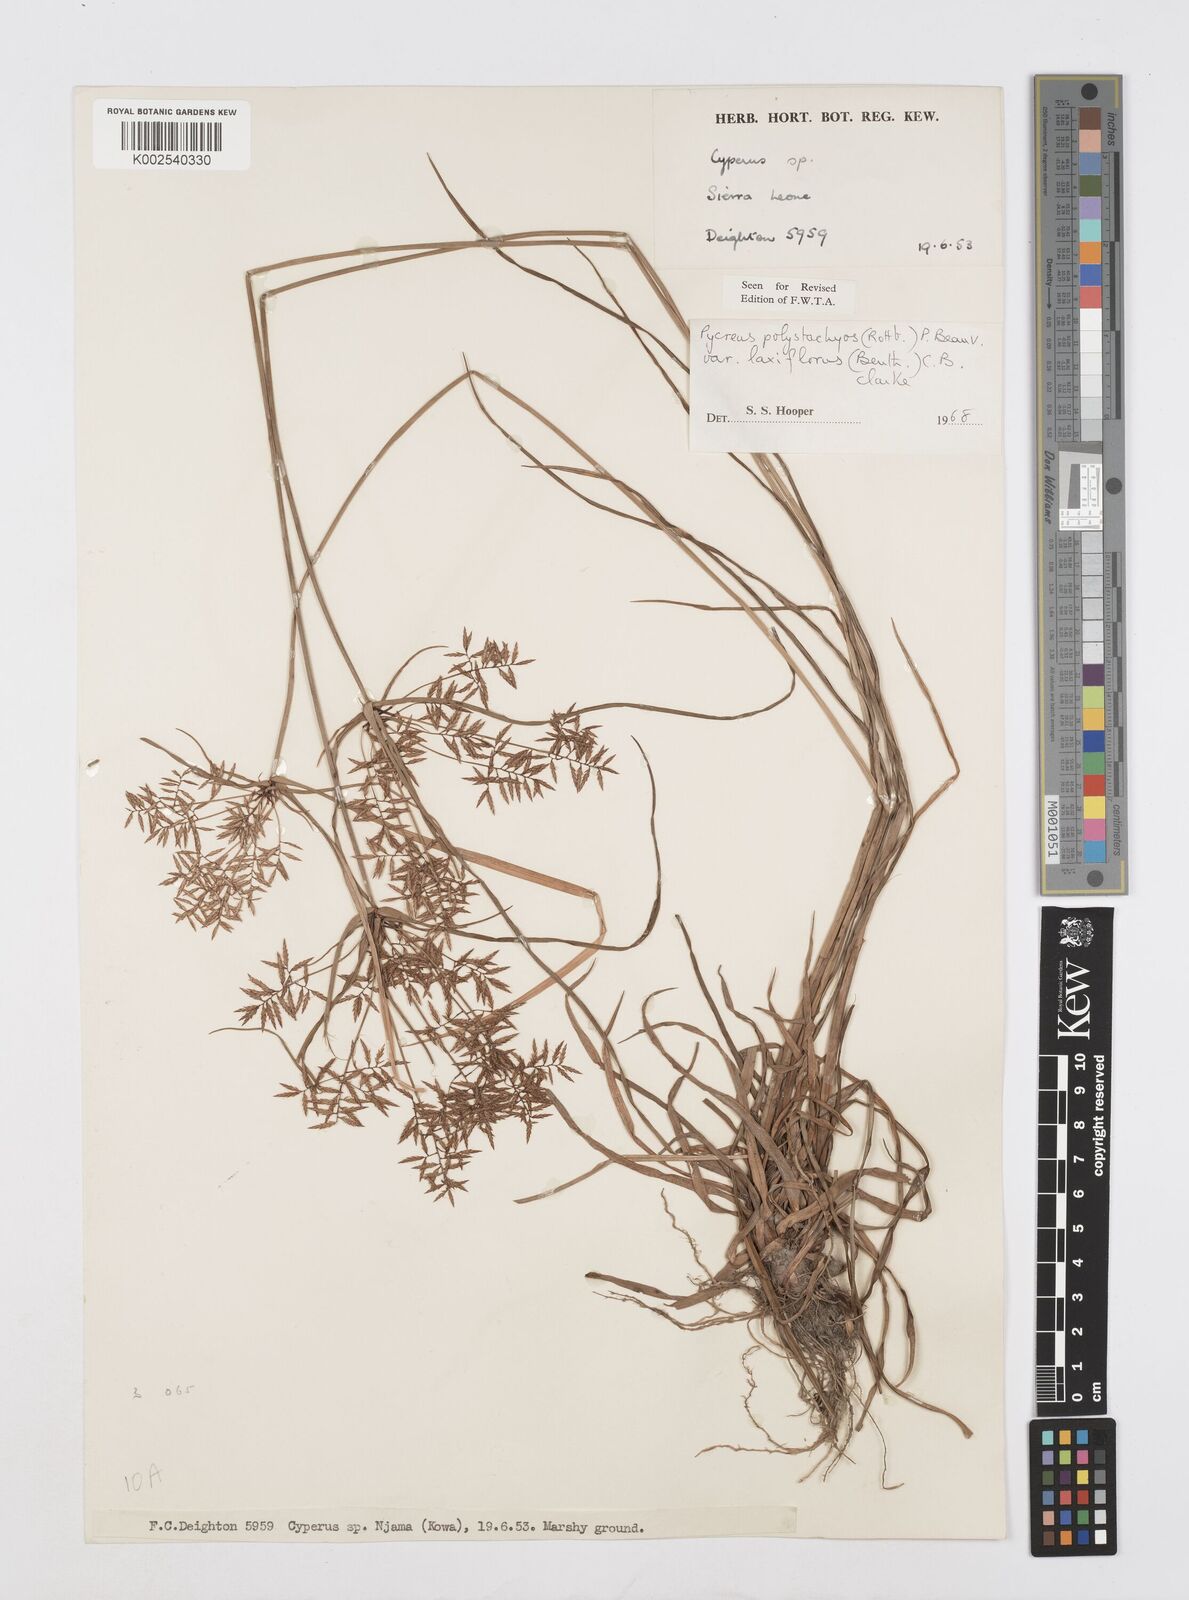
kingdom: Plantae
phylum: Tracheophyta
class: Liliopsida
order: Poales
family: Cyperaceae
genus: Cyperus
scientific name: Cyperus polystachyos
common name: Bunchy flat sedge
